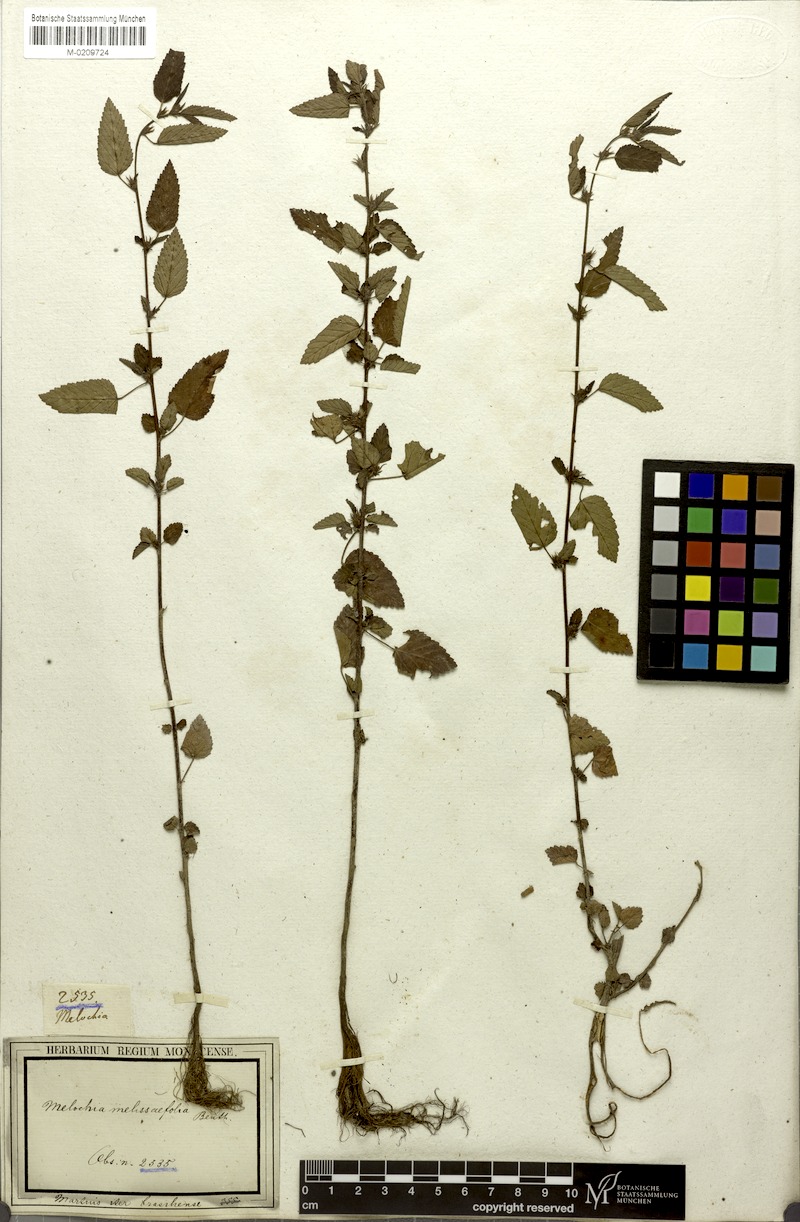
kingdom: Plantae
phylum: Tracheophyta
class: Magnoliopsida
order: Malvales
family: Malvaceae
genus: Melochia
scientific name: Melochia melissifolia
